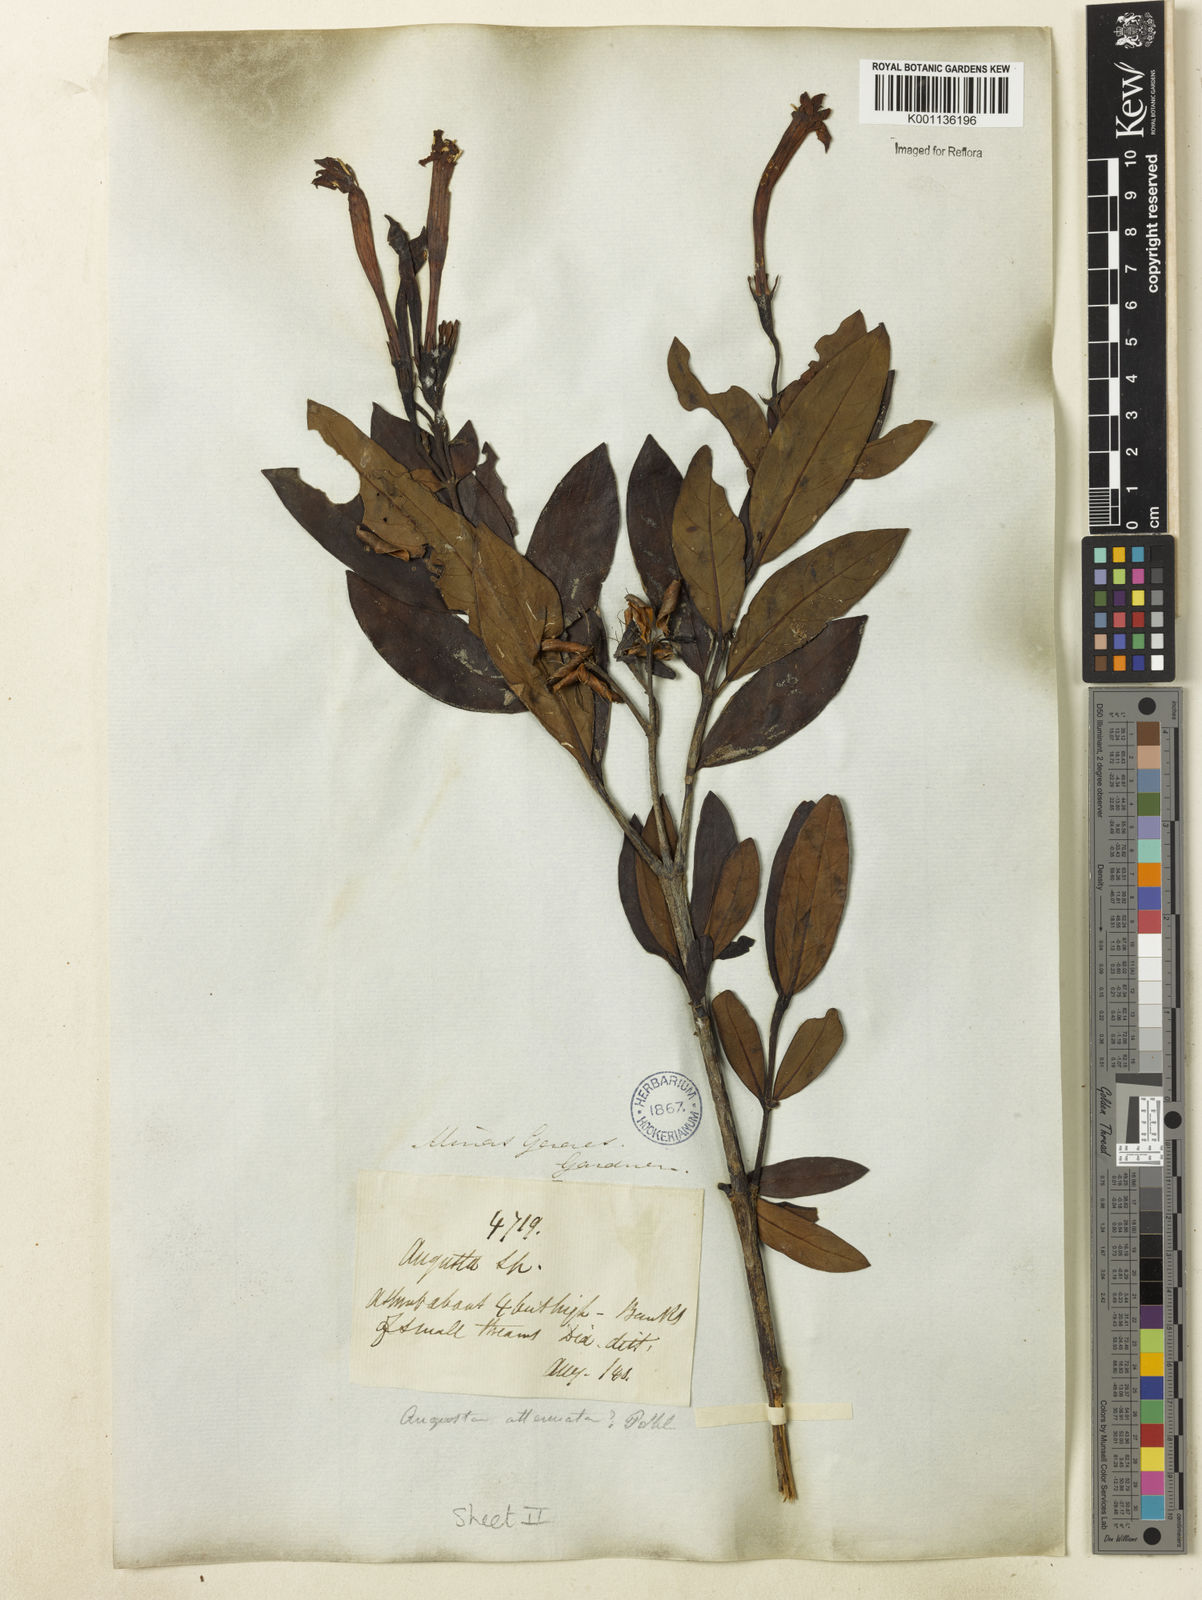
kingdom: Plantae
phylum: Tracheophyta
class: Magnoliopsida
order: Gentianales
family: Rubiaceae
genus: Augusta
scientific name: Augusta longifolia
